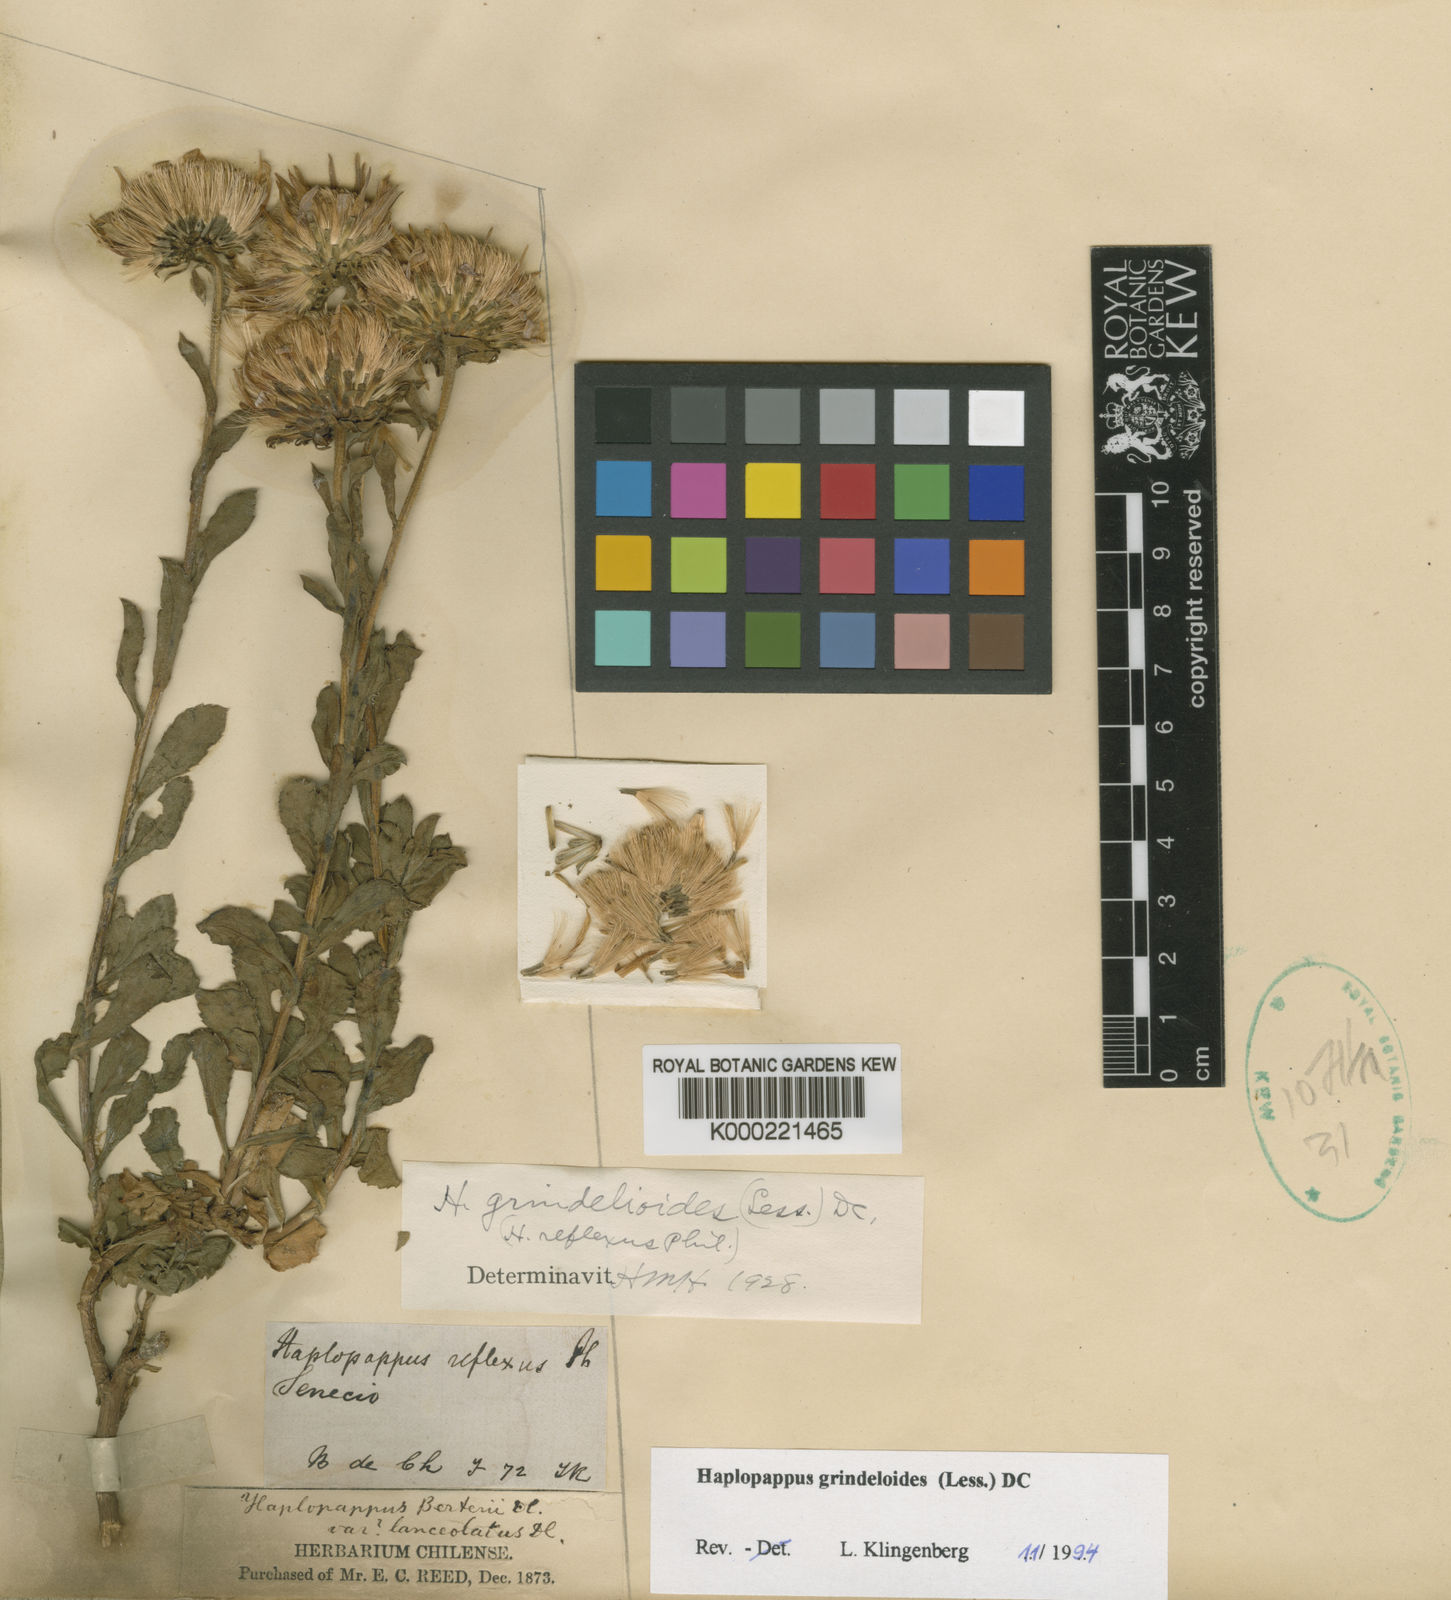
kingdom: Plantae
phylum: Tracheophyta
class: Magnoliopsida
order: Asterales
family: Asteraceae
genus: Haplopappus
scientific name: Haplopappus grindelioides
